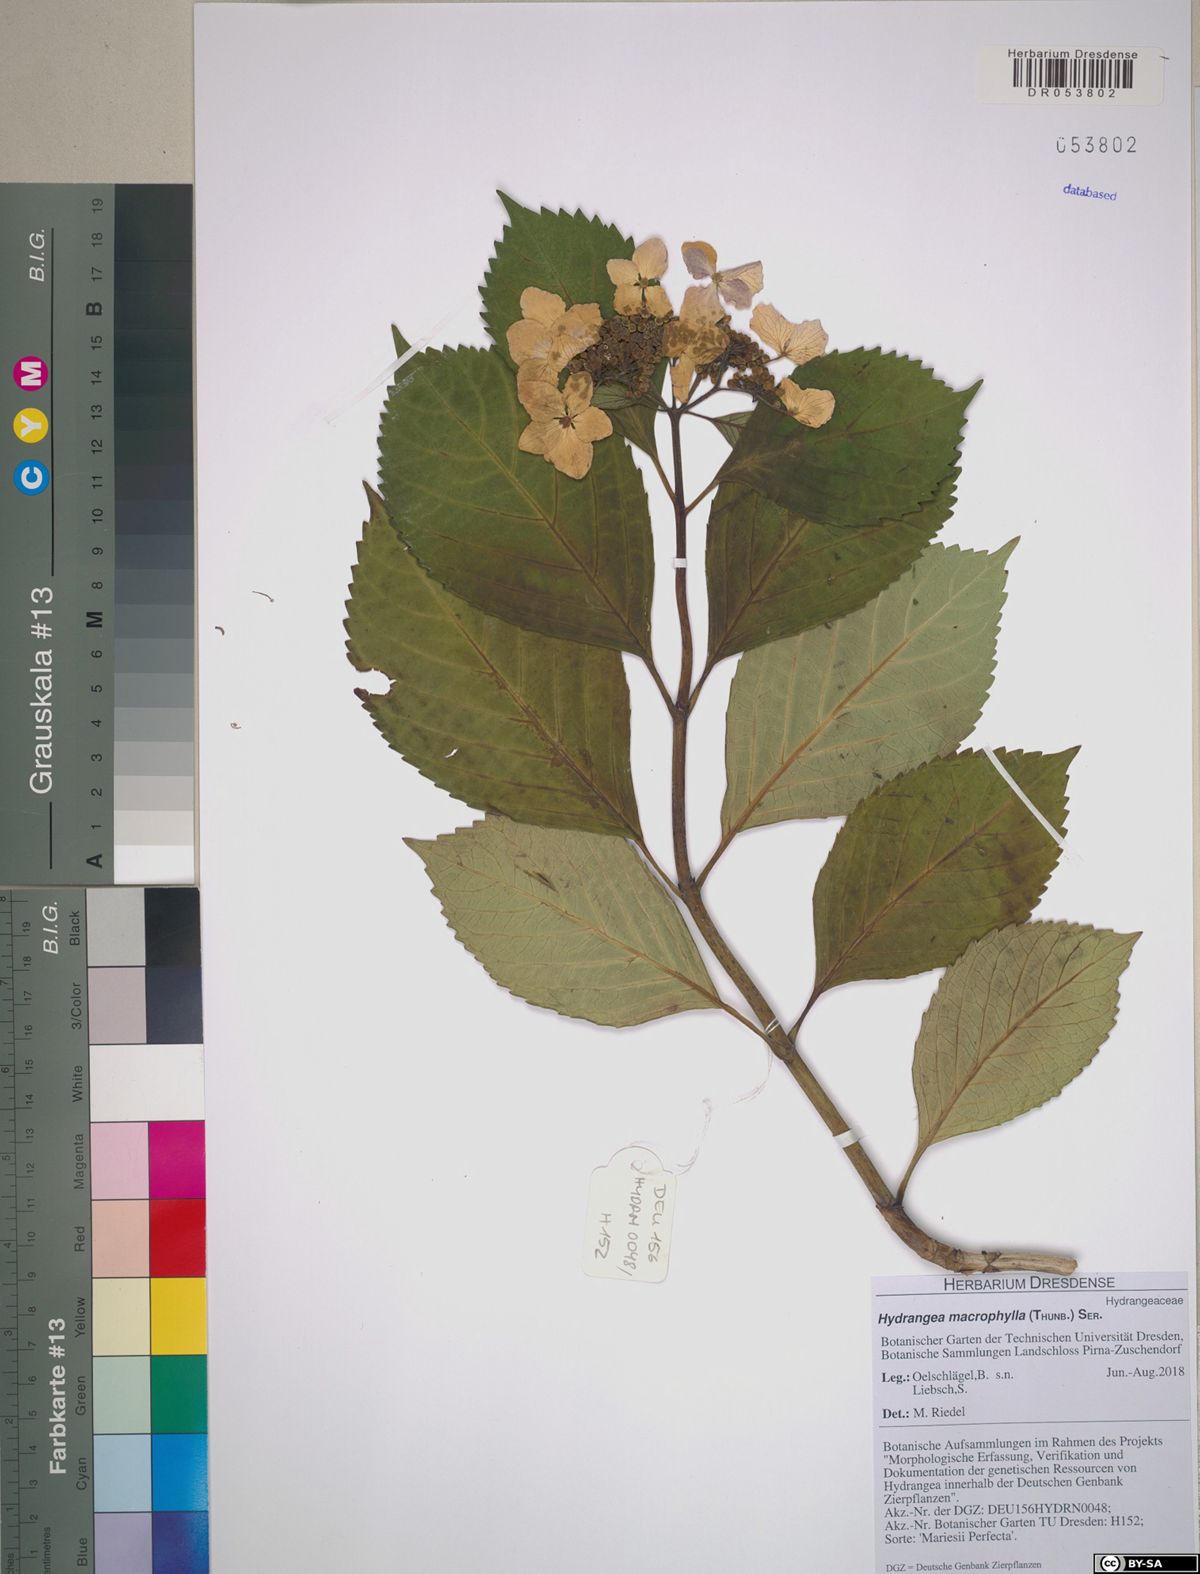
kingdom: Plantae
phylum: Tracheophyta
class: Magnoliopsida
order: Cornales
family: Hydrangeaceae
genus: Hydrangea
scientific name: Hydrangea macrophylla
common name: Hydrangea
